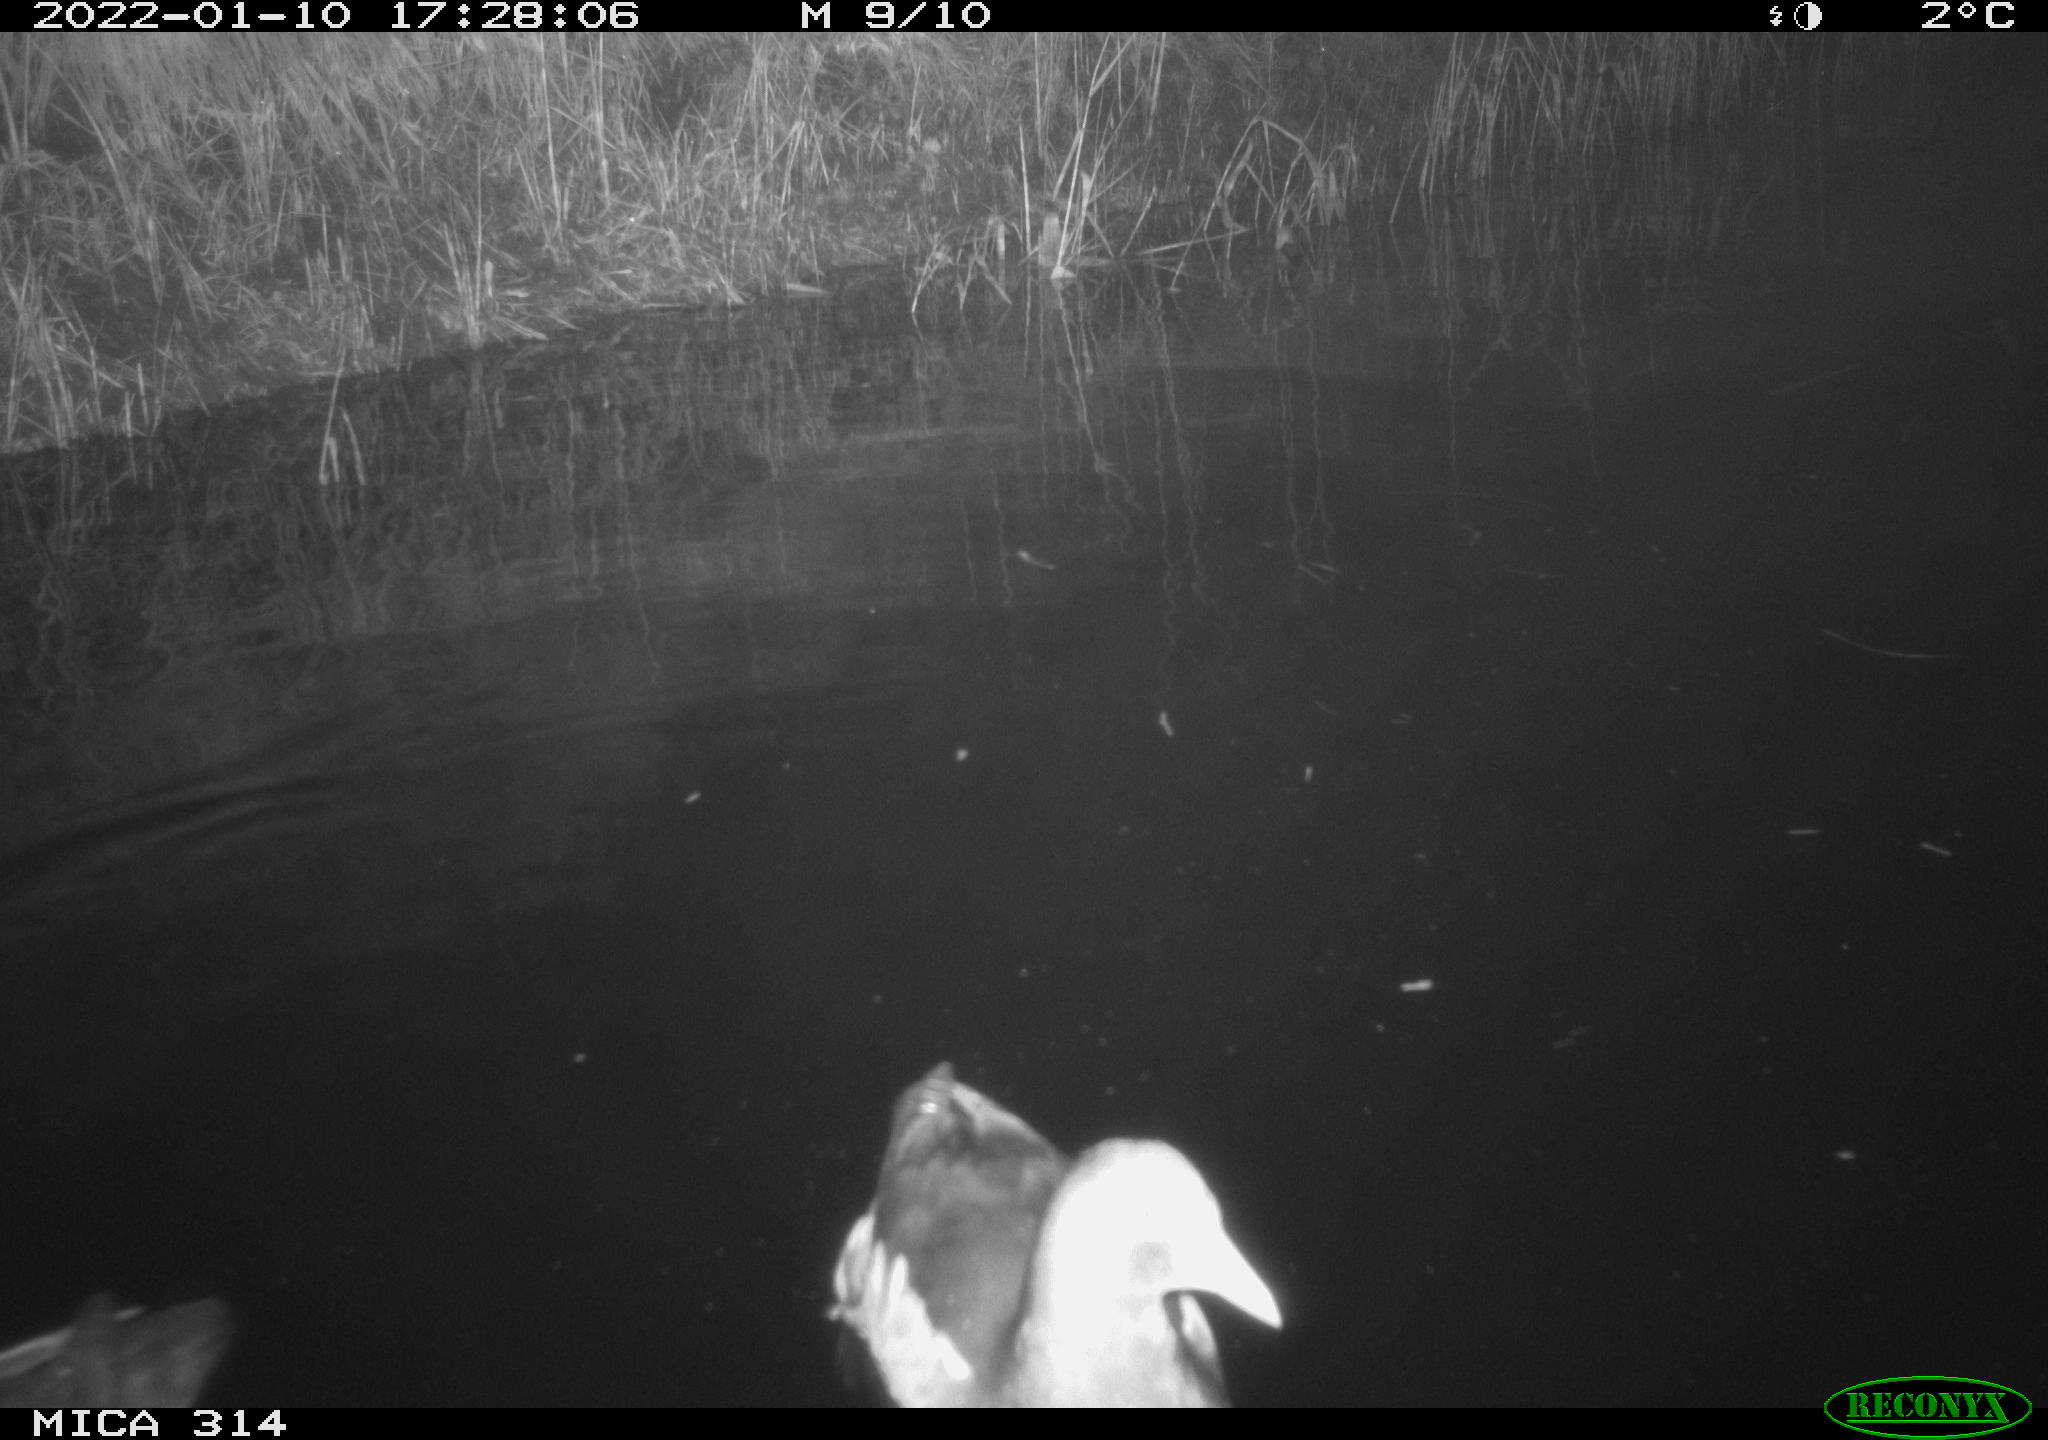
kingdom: Animalia
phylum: Chordata
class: Aves
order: Gruiformes
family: Rallidae
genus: Gallinula
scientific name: Gallinula chloropus
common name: Common moorhen
